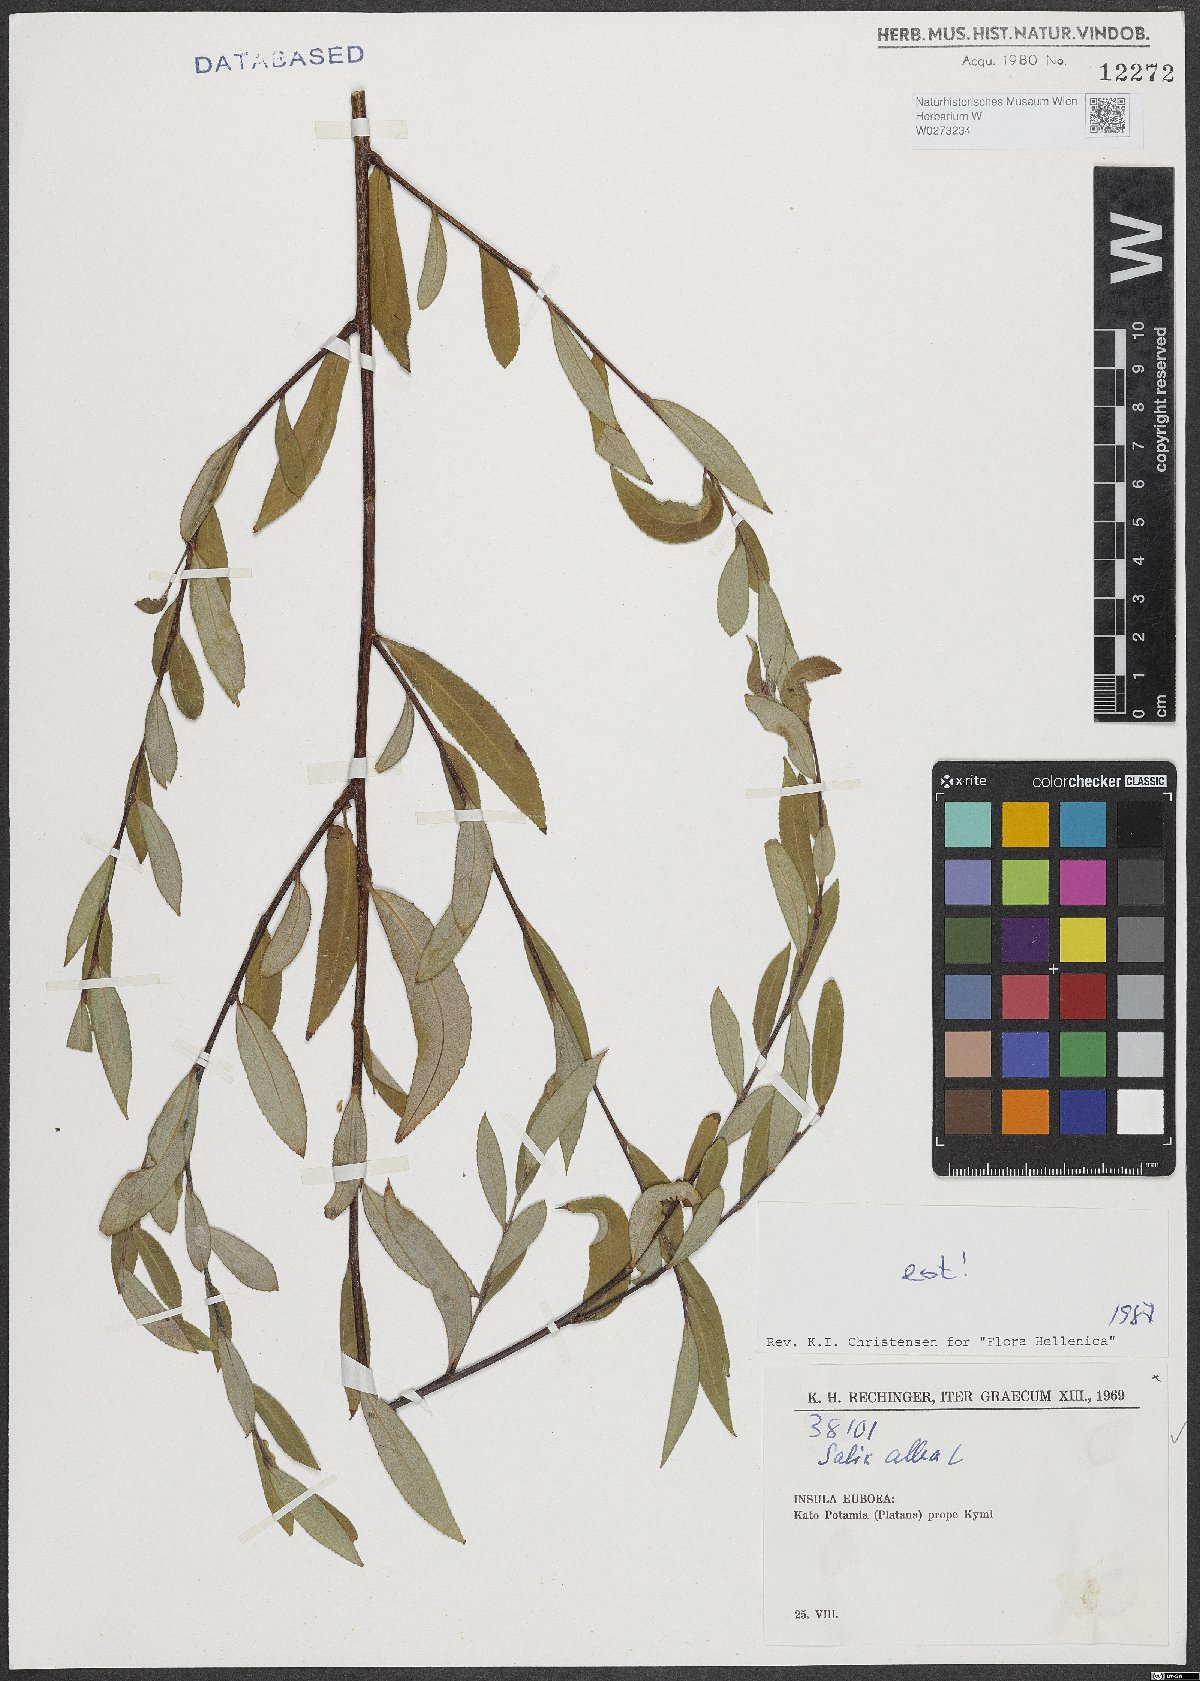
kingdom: Plantae
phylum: Tracheophyta
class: Magnoliopsida
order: Malpighiales
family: Salicaceae
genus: Salix
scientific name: Salix alba
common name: White willow
